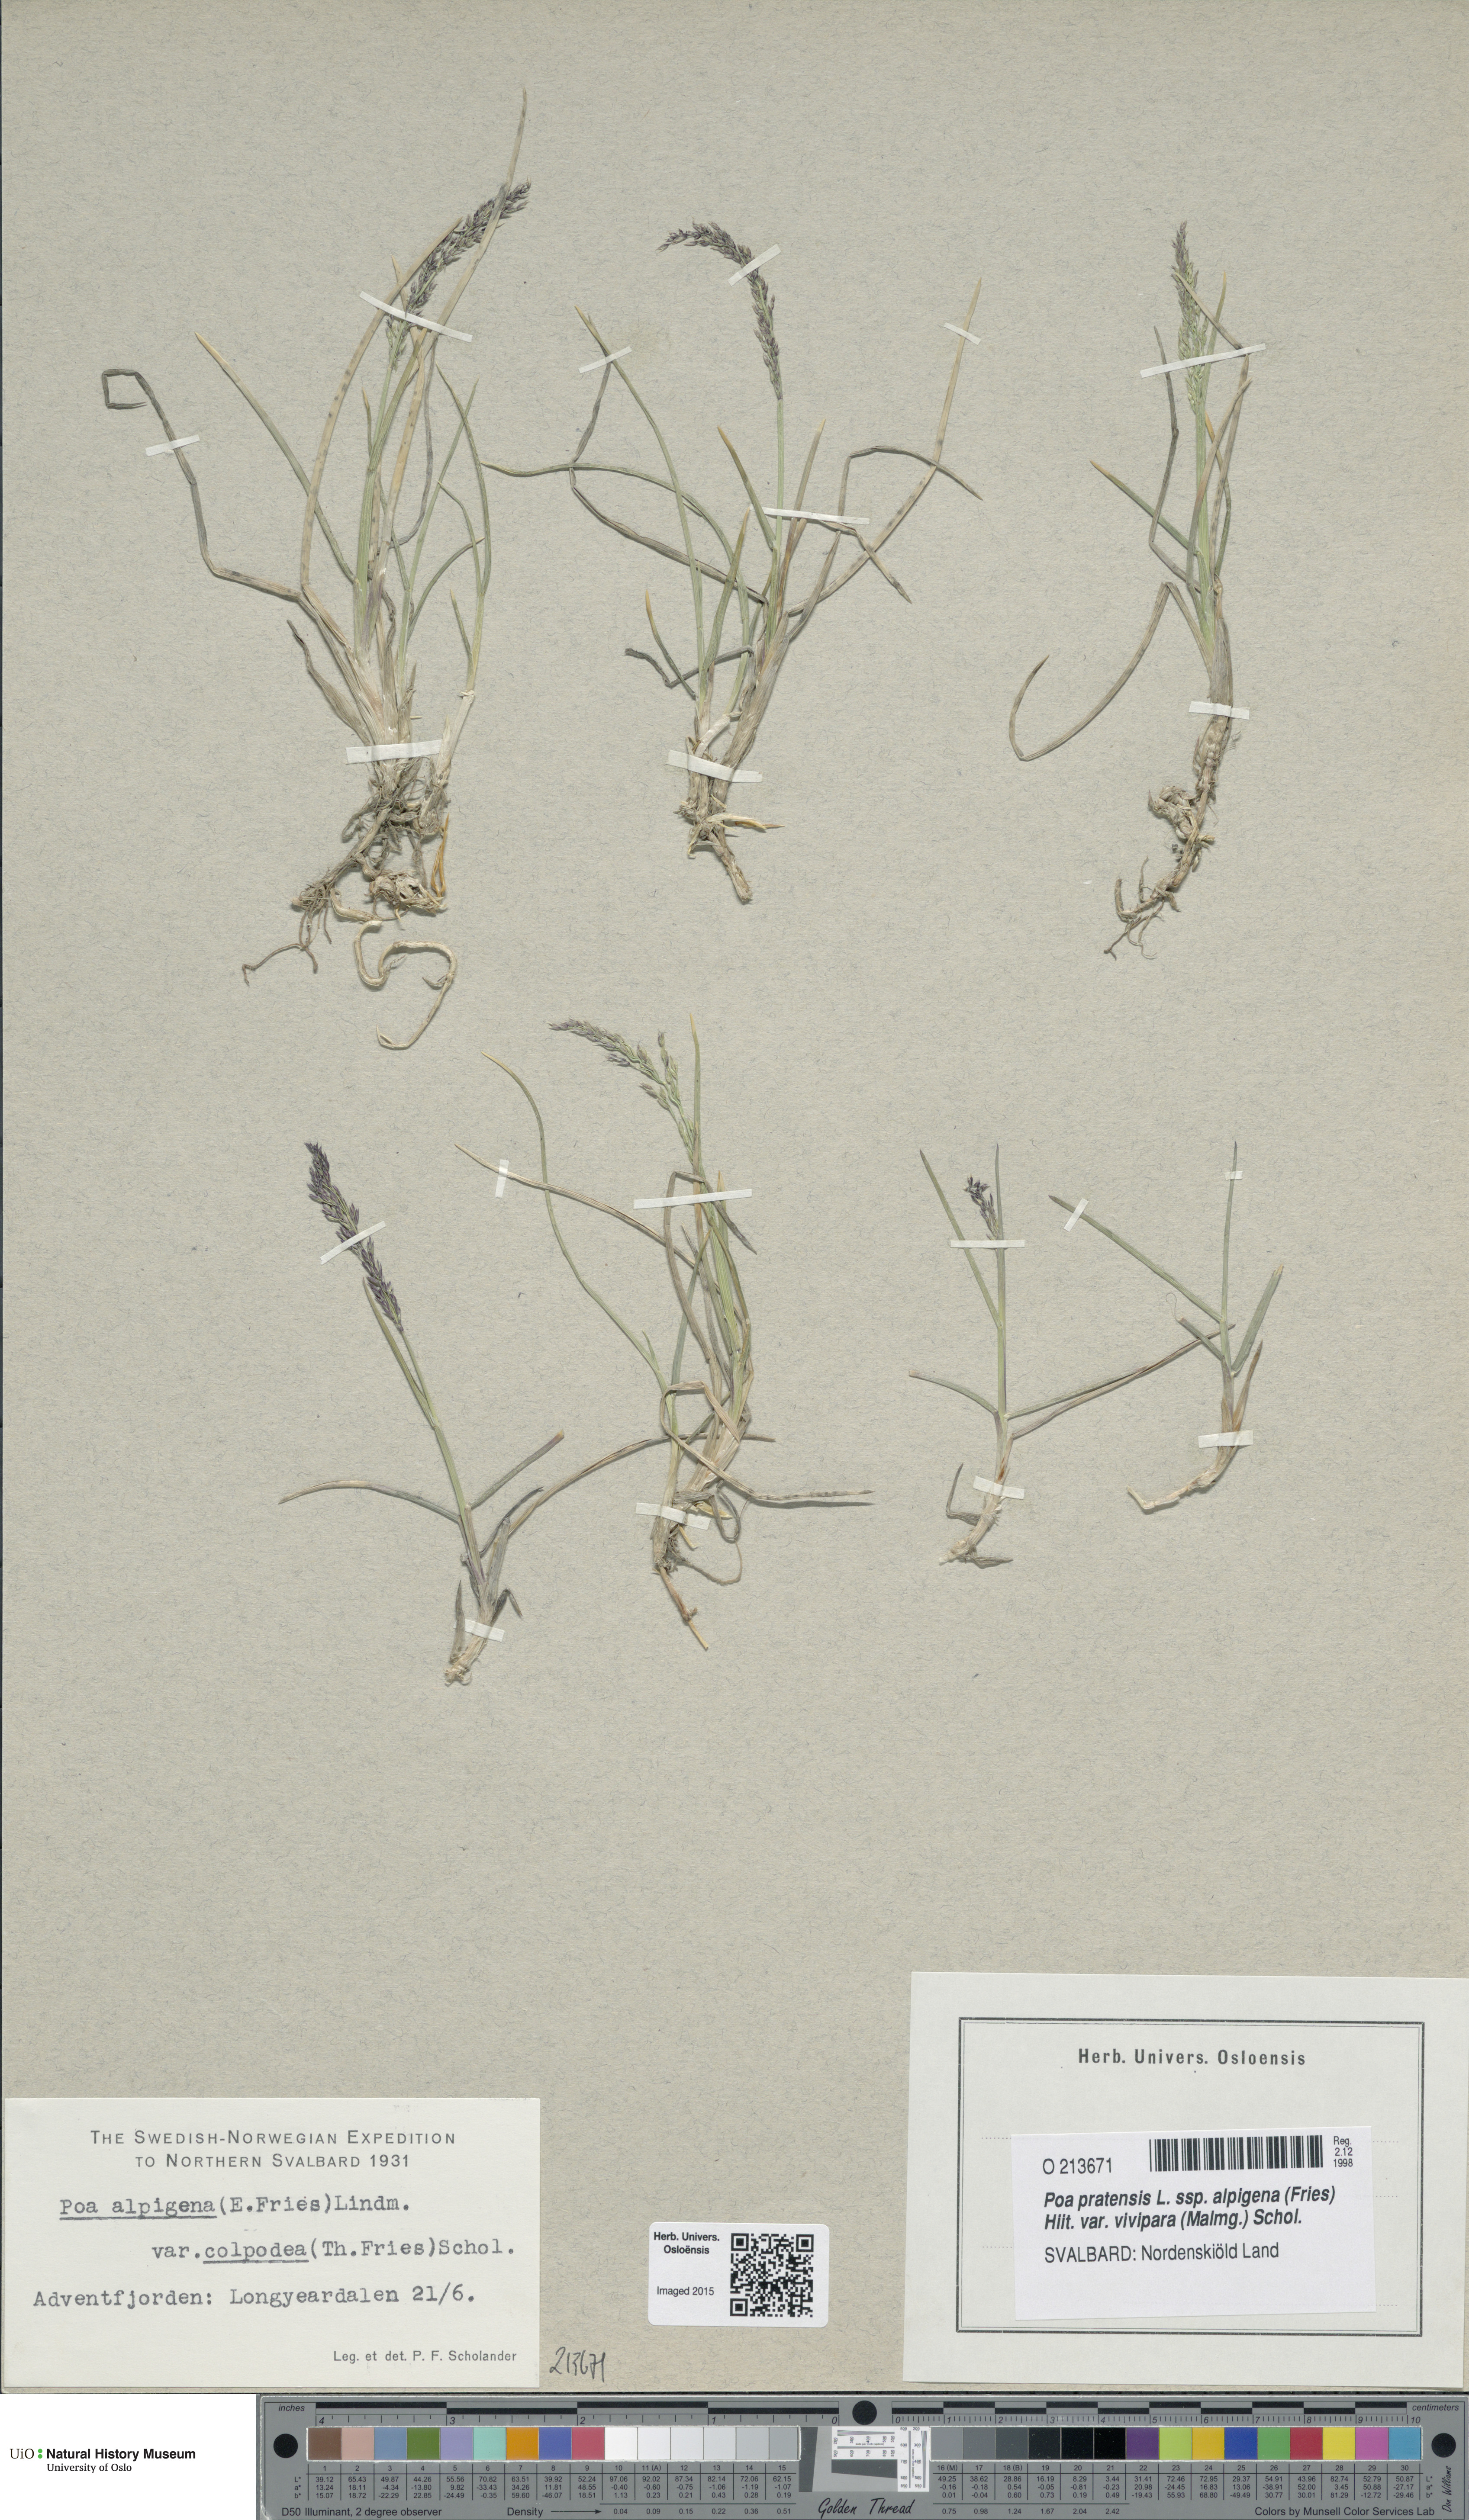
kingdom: Plantae
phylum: Tracheophyta
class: Liliopsida
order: Poales
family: Poaceae
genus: Poa
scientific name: Poa colpodea
